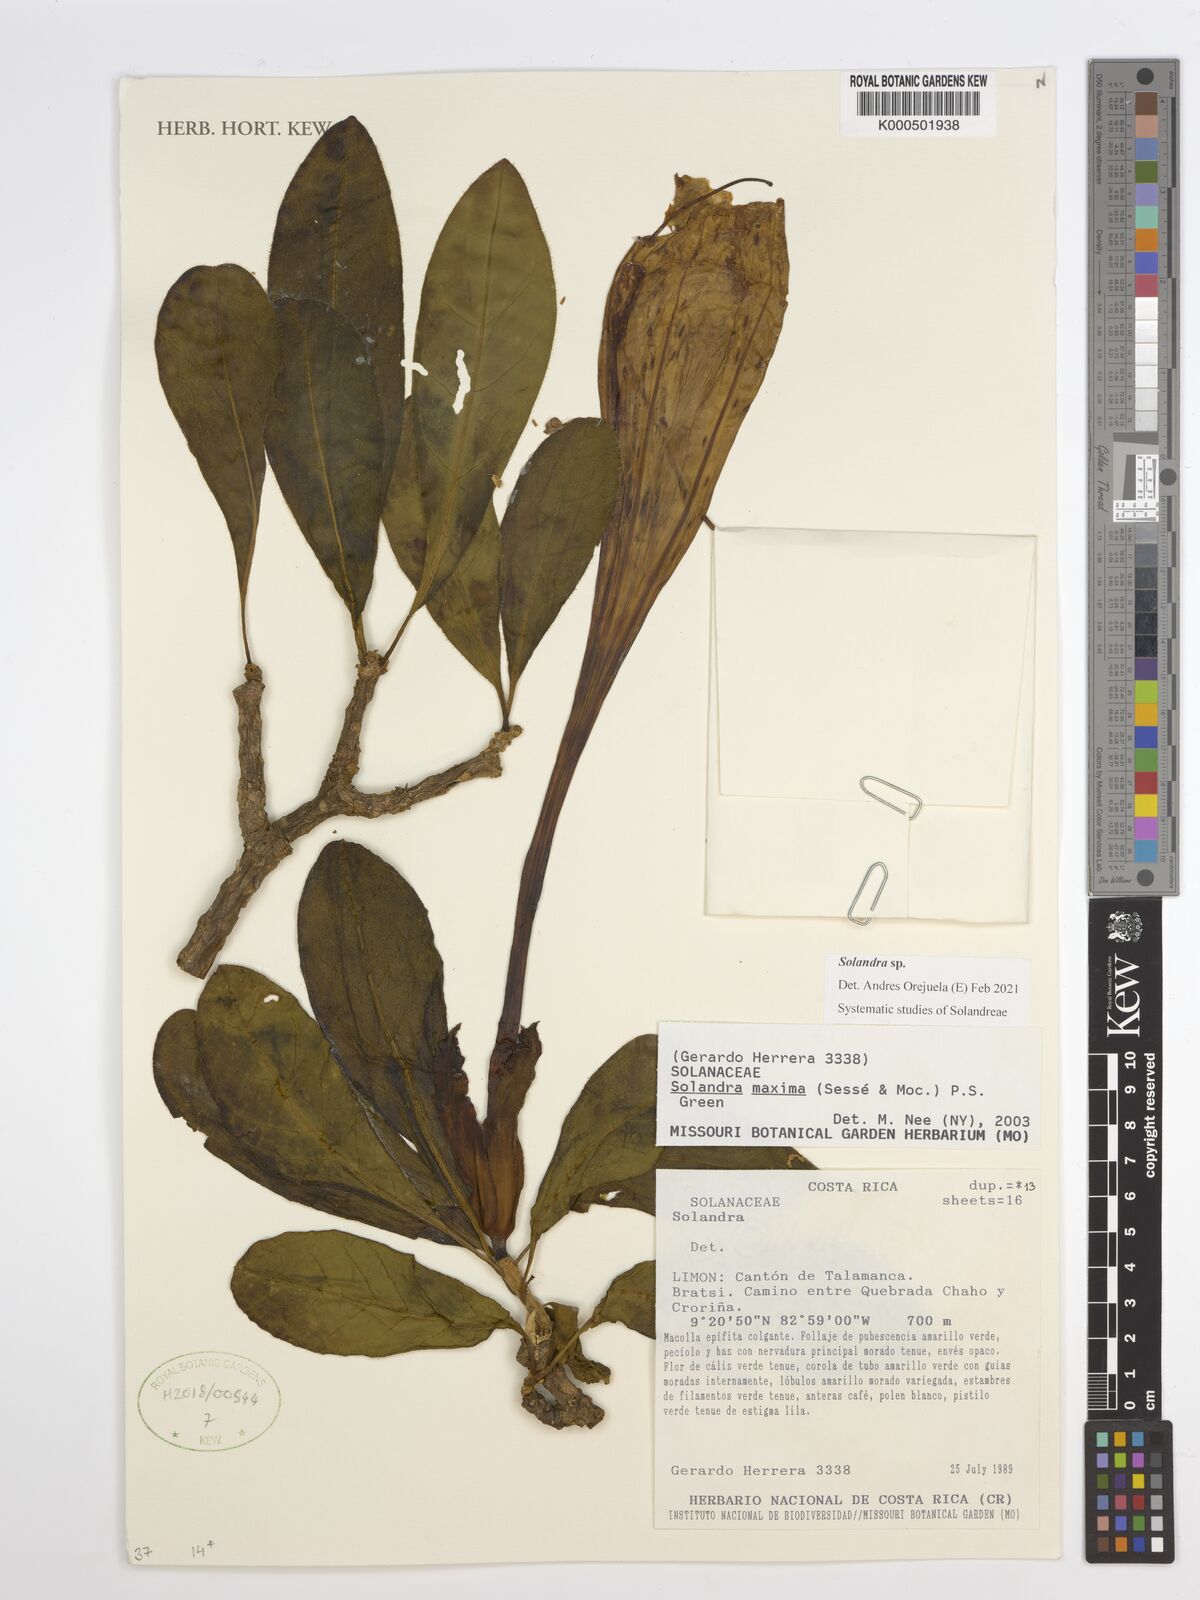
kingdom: Plantae
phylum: Tracheophyta
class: Magnoliopsida
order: Solanales
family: Solanaceae
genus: Solandra
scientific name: Solandra
